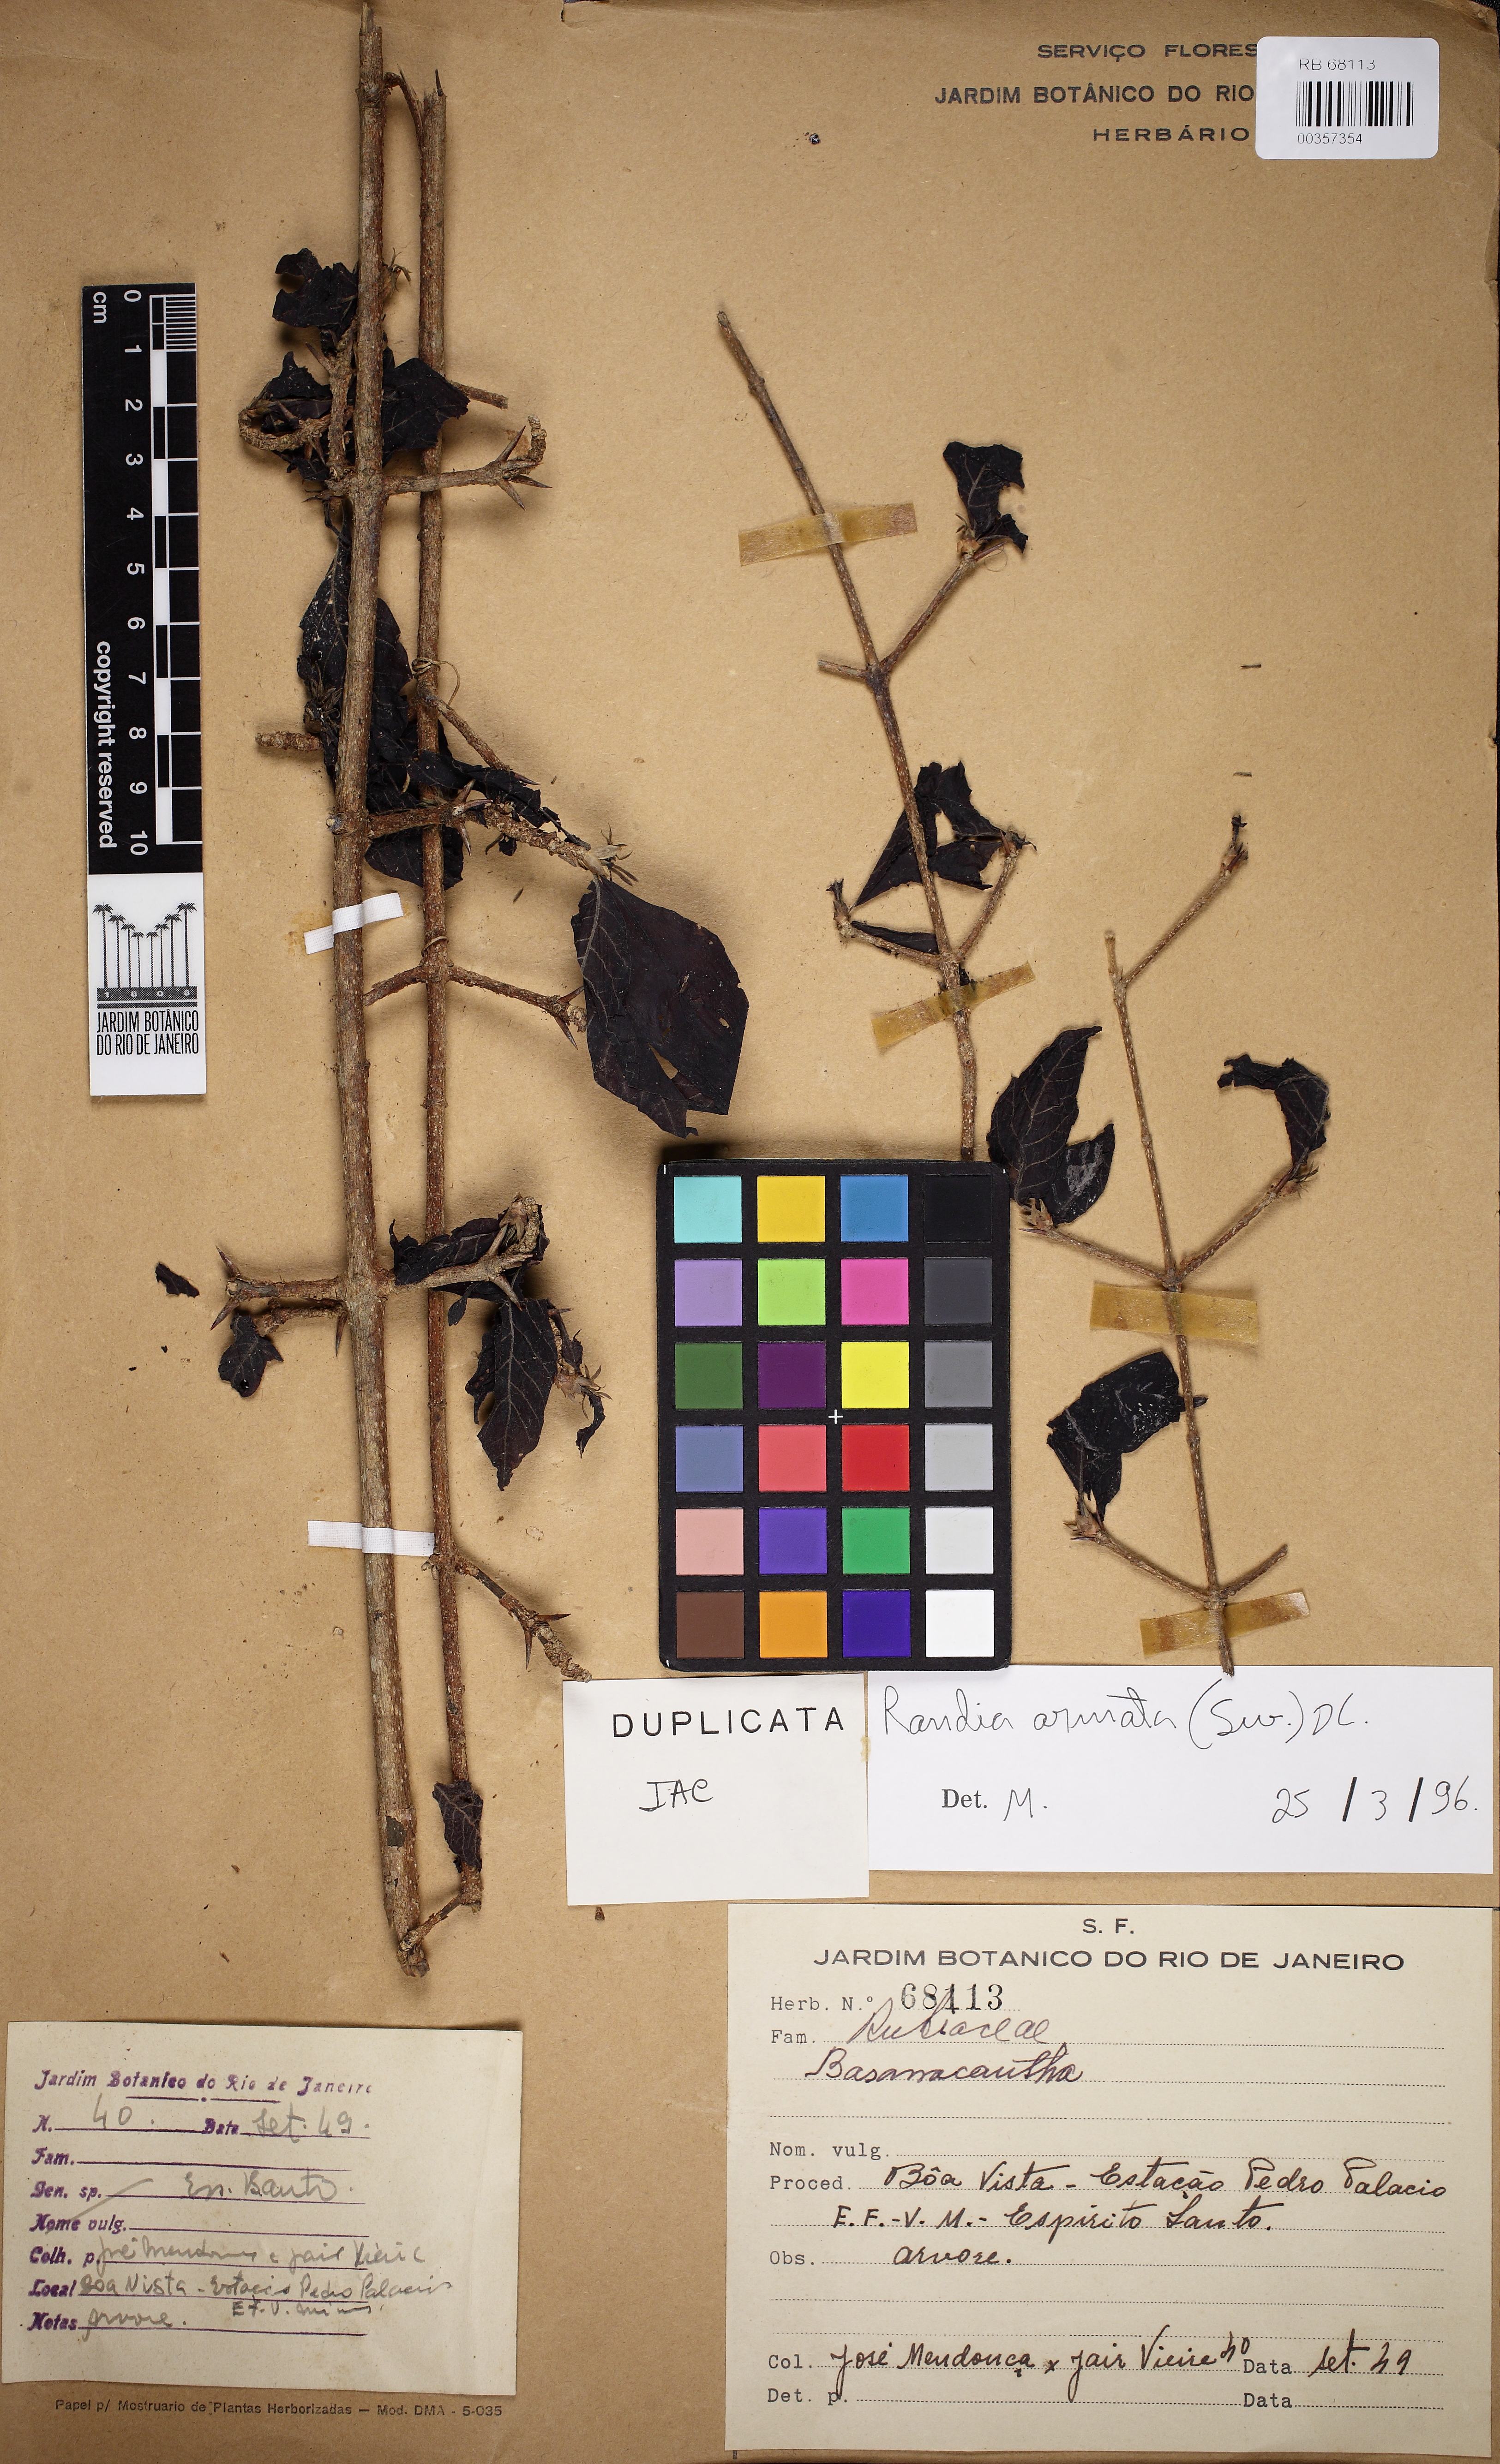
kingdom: Plantae
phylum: Tracheophyta
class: Magnoliopsida
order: Gentianales
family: Rubiaceae
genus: Randia
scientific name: Randia armata
